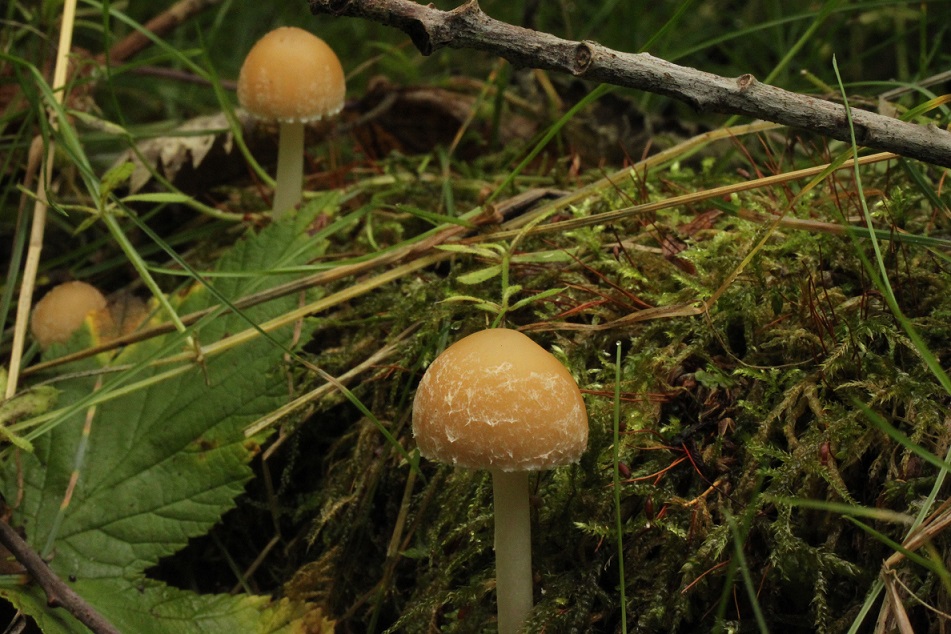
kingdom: Fungi
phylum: Basidiomycota
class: Agaricomycetes
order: Agaricales
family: Psathyrellaceae
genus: Candolleomyces
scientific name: Candolleomyces candolleanus
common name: Candolles mørkhat
